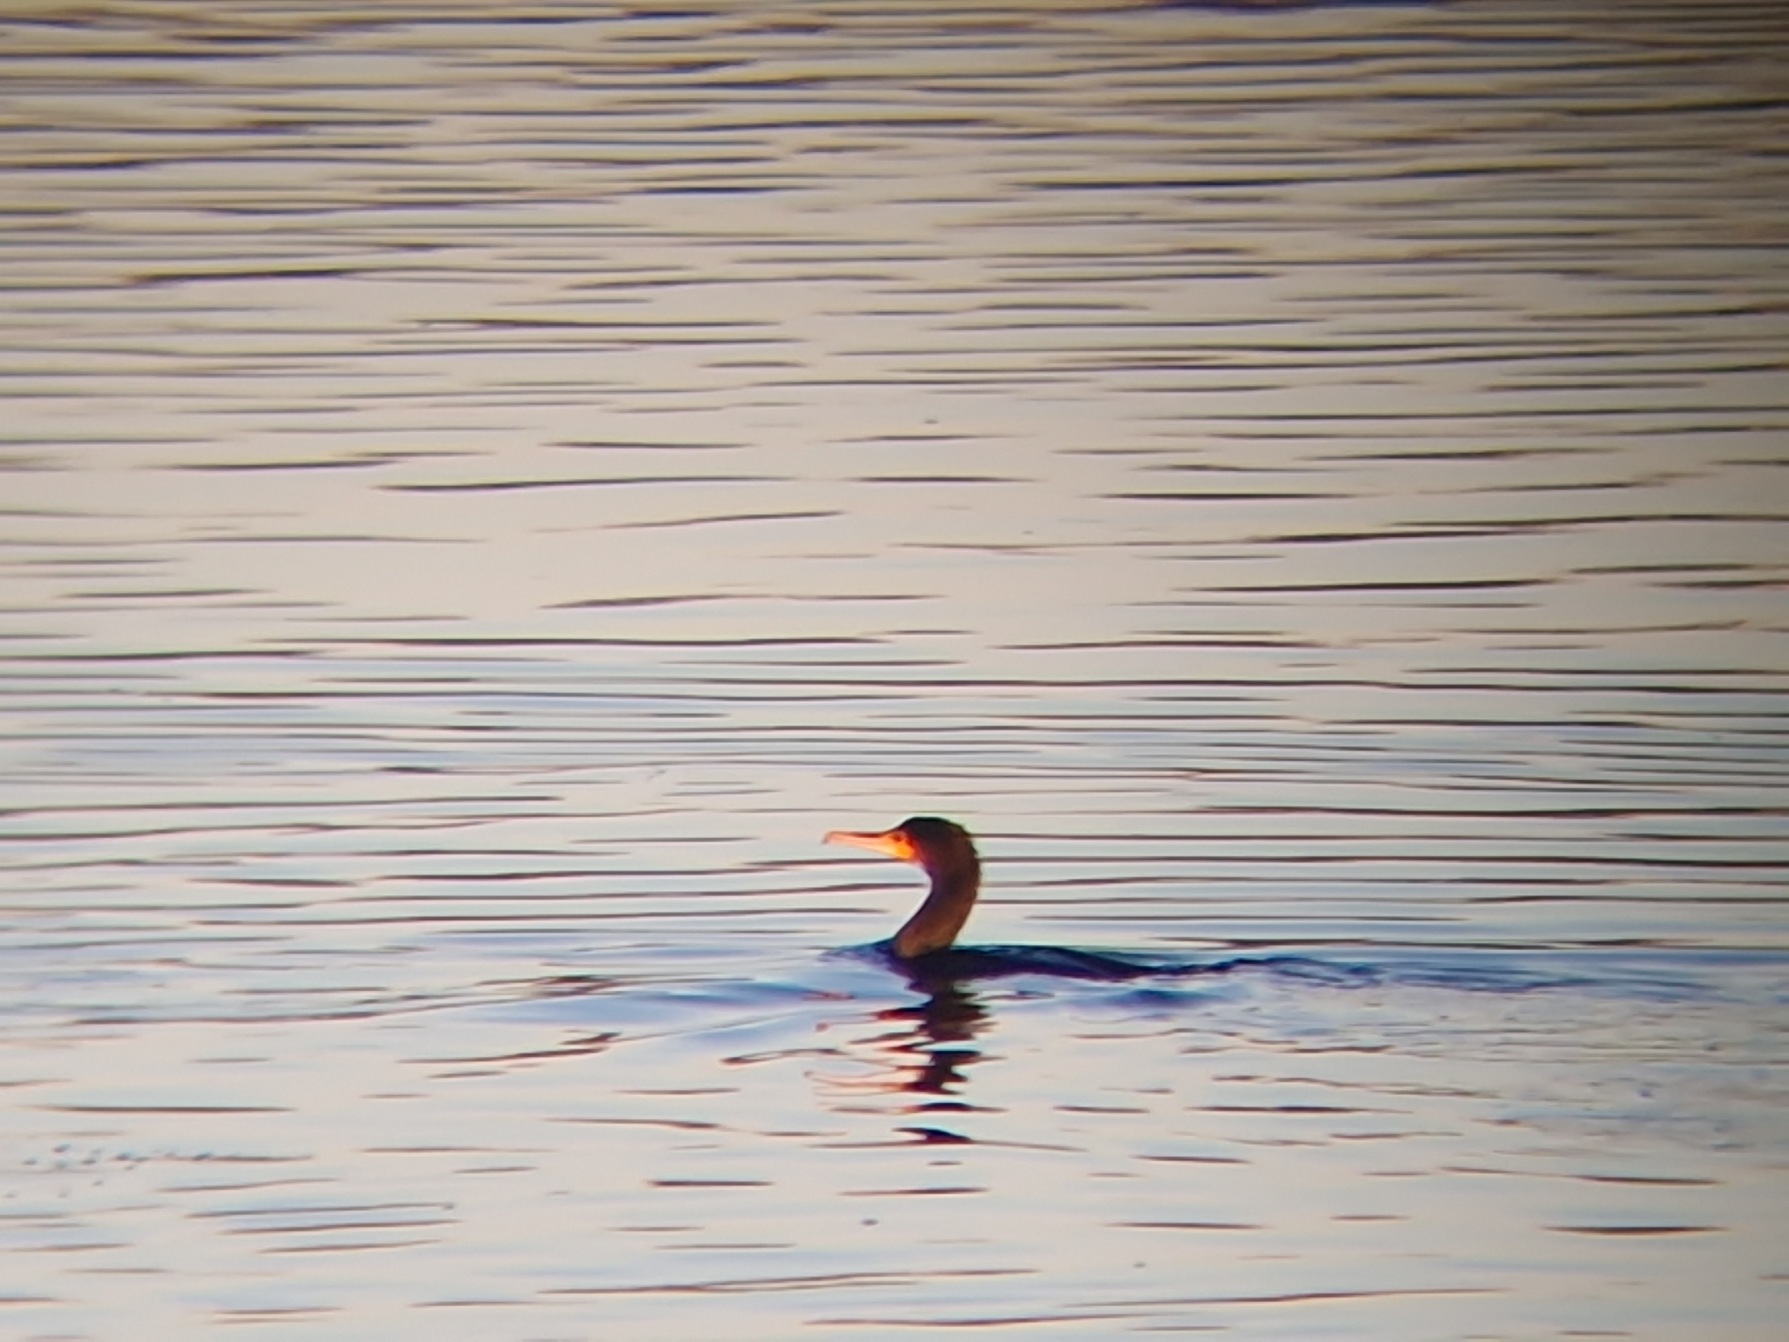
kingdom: Animalia
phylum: Chordata
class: Aves
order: Suliformes
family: Phalacrocoracidae
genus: Phalacrocorax
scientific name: Phalacrocorax carbo
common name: Skarv
